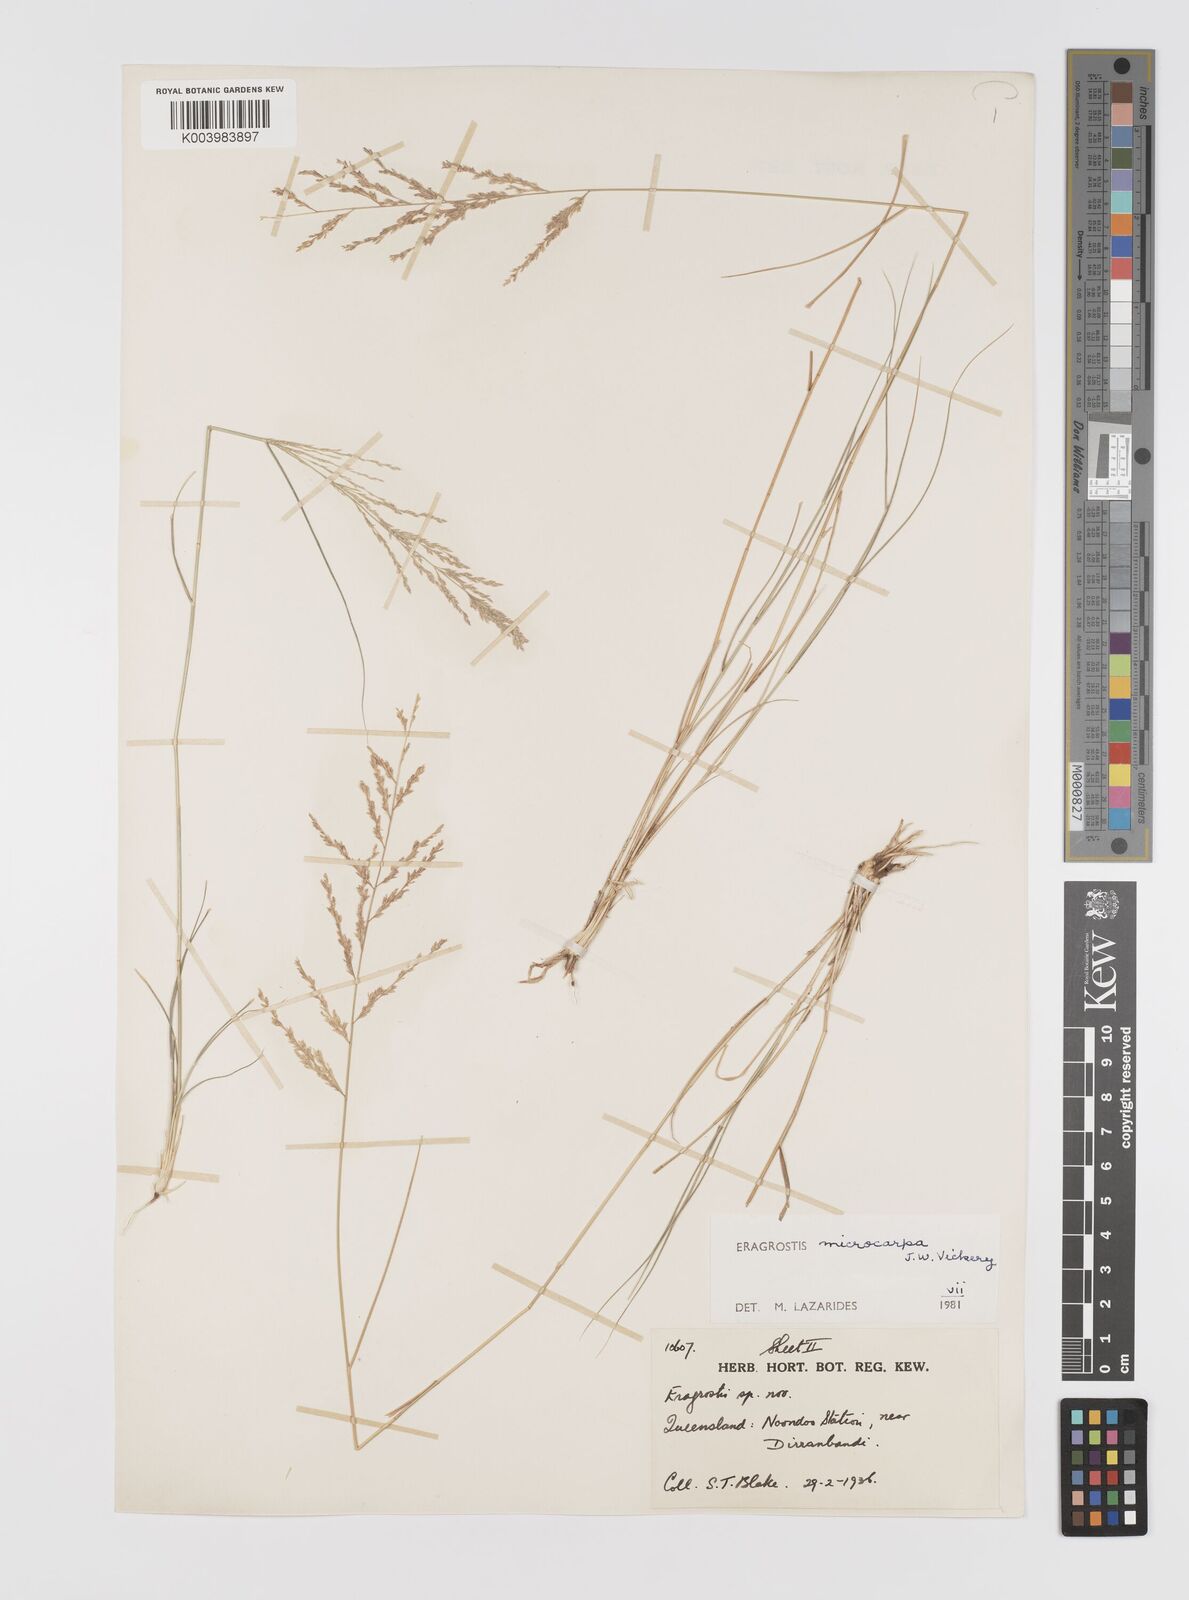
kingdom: Plantae
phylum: Tracheophyta
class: Liliopsida
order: Poales
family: Poaceae
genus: Eragrostis
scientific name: Eragrostis microcarpa
